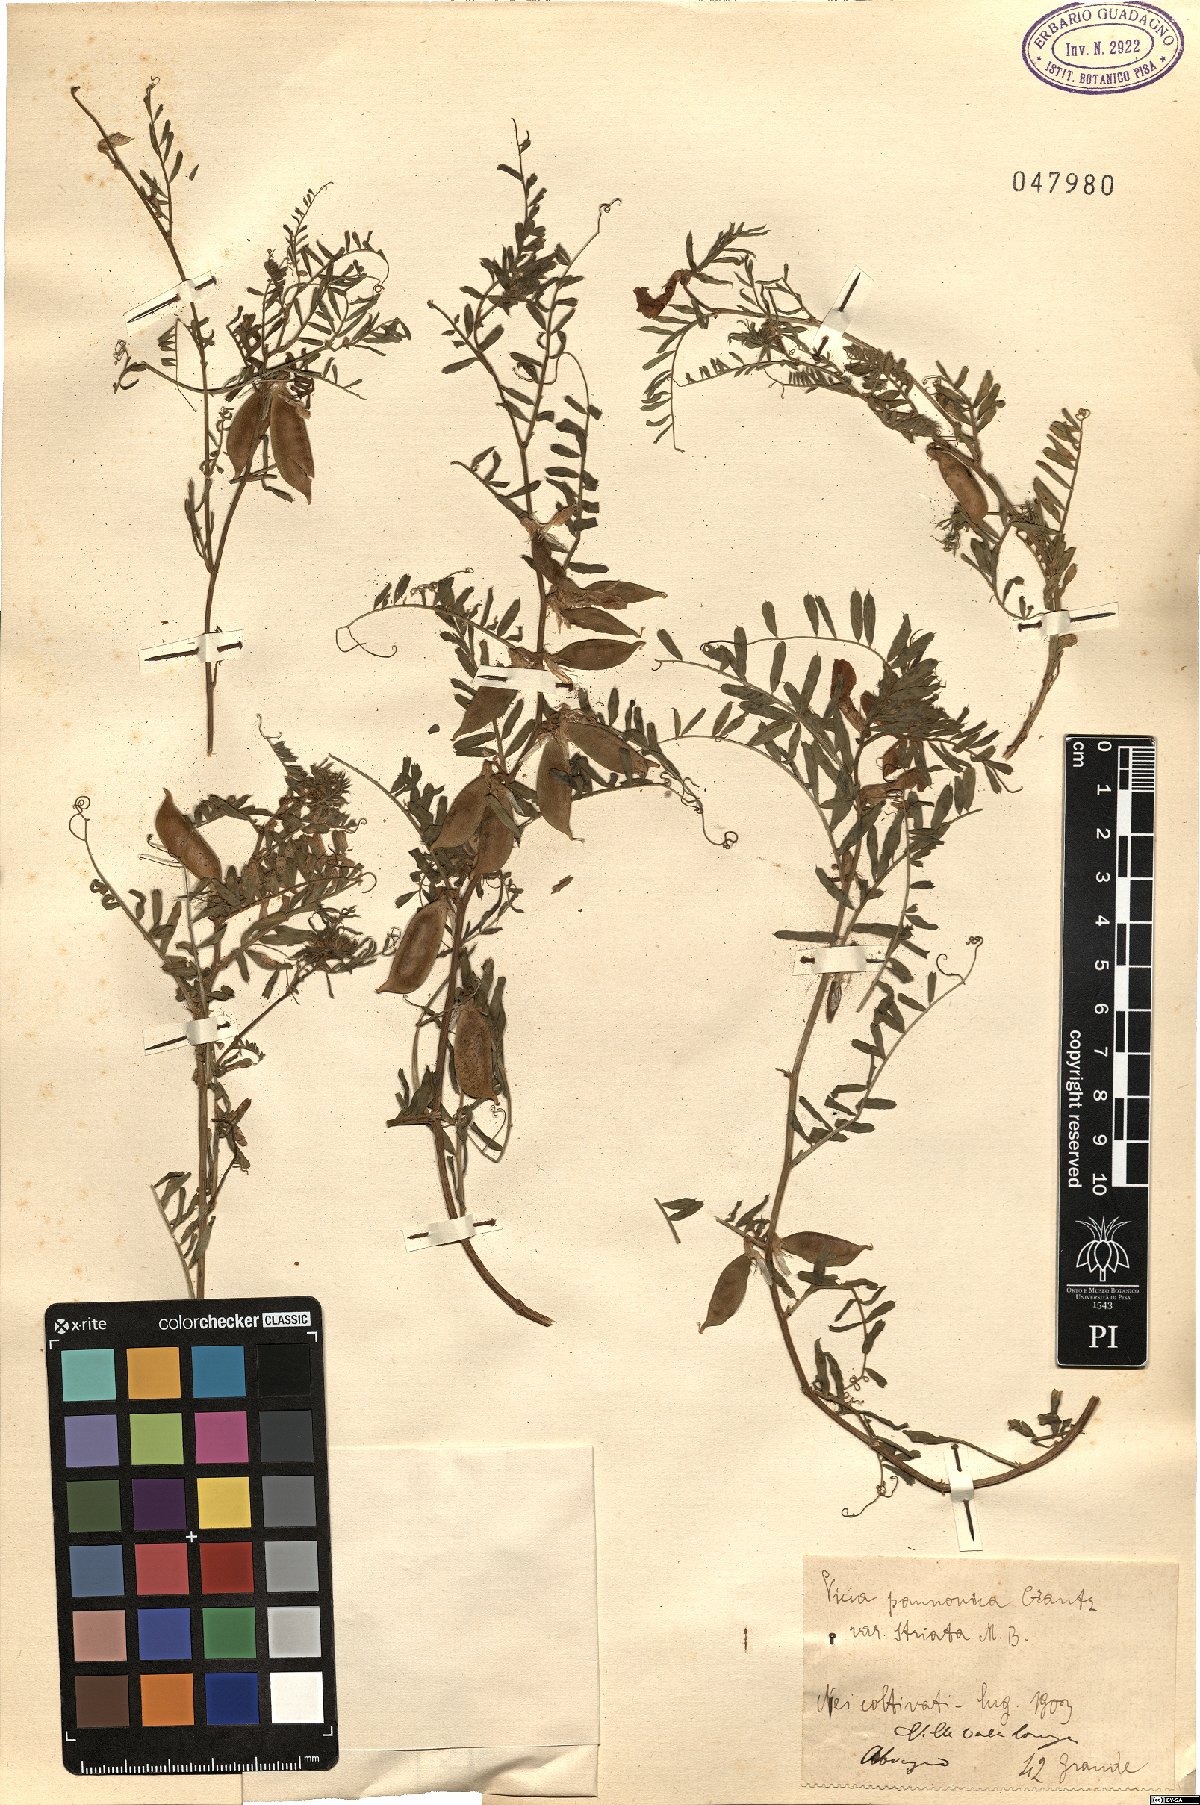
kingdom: Plantae
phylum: Tracheophyta
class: Magnoliopsida
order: Fabales
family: Fabaceae
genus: Vicia
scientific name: Vicia pannonica
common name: Hungarian vetch
